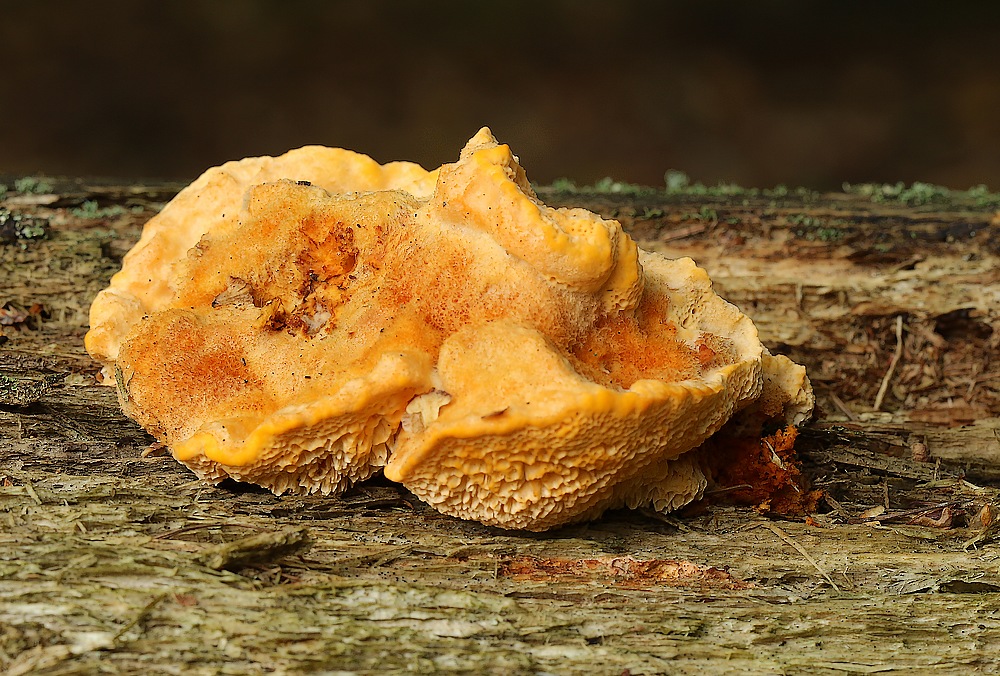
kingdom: Fungi
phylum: Basidiomycota
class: Agaricomycetes
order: Polyporales
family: Pycnoporellaceae
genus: Pycnoporellus
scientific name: Pycnoporellus fulgens
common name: flammeporesvamp
